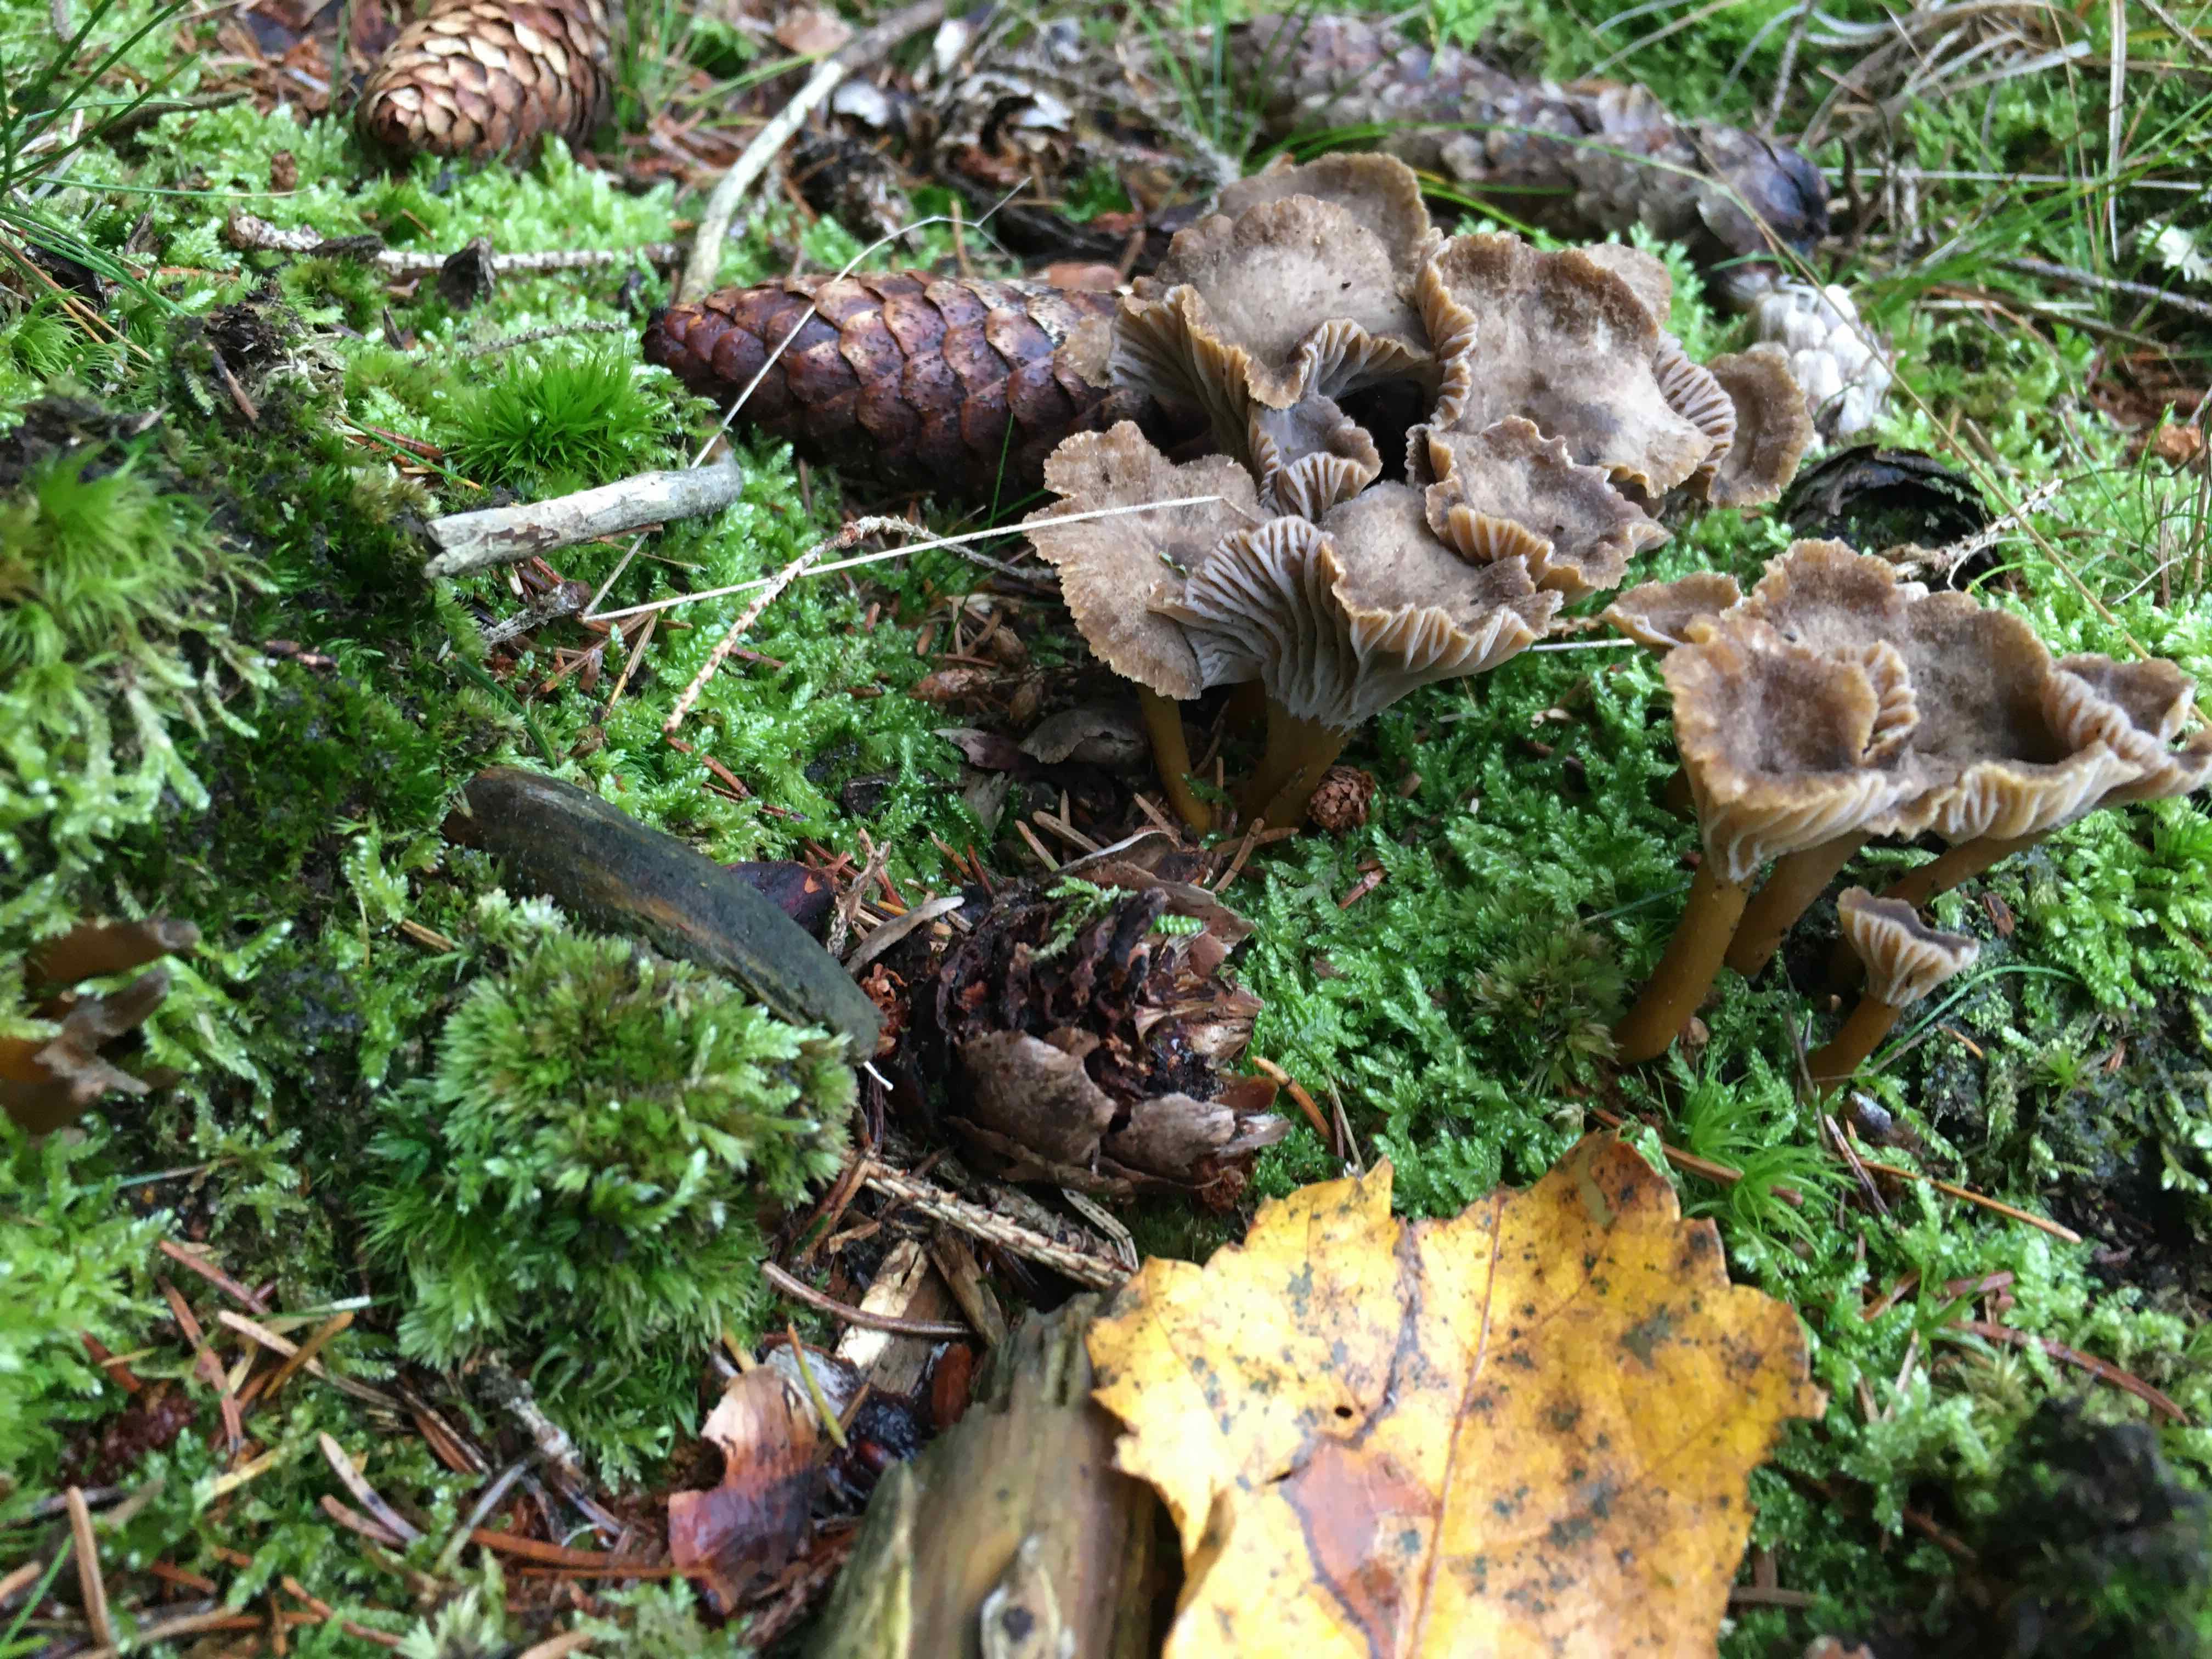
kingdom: Fungi
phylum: Basidiomycota
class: Agaricomycetes
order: Cantharellales
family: Hydnaceae
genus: Craterellus
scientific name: Craterellus tubaeformis
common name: tragt-kantarel
